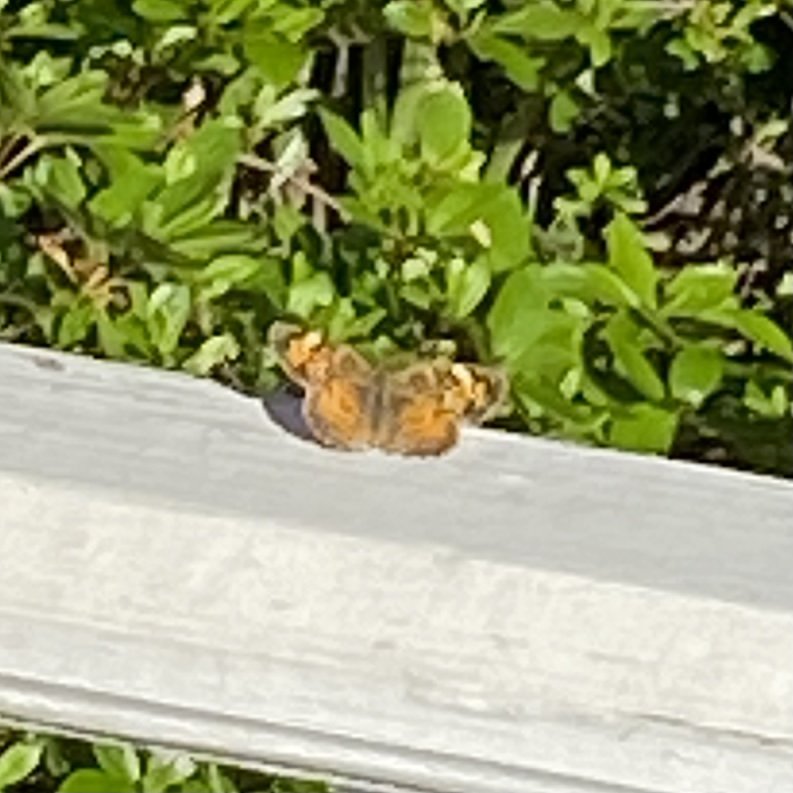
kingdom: Animalia
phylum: Arthropoda
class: Insecta
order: Lepidoptera
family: Nymphalidae
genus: Phyciodes
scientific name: Phyciodes
